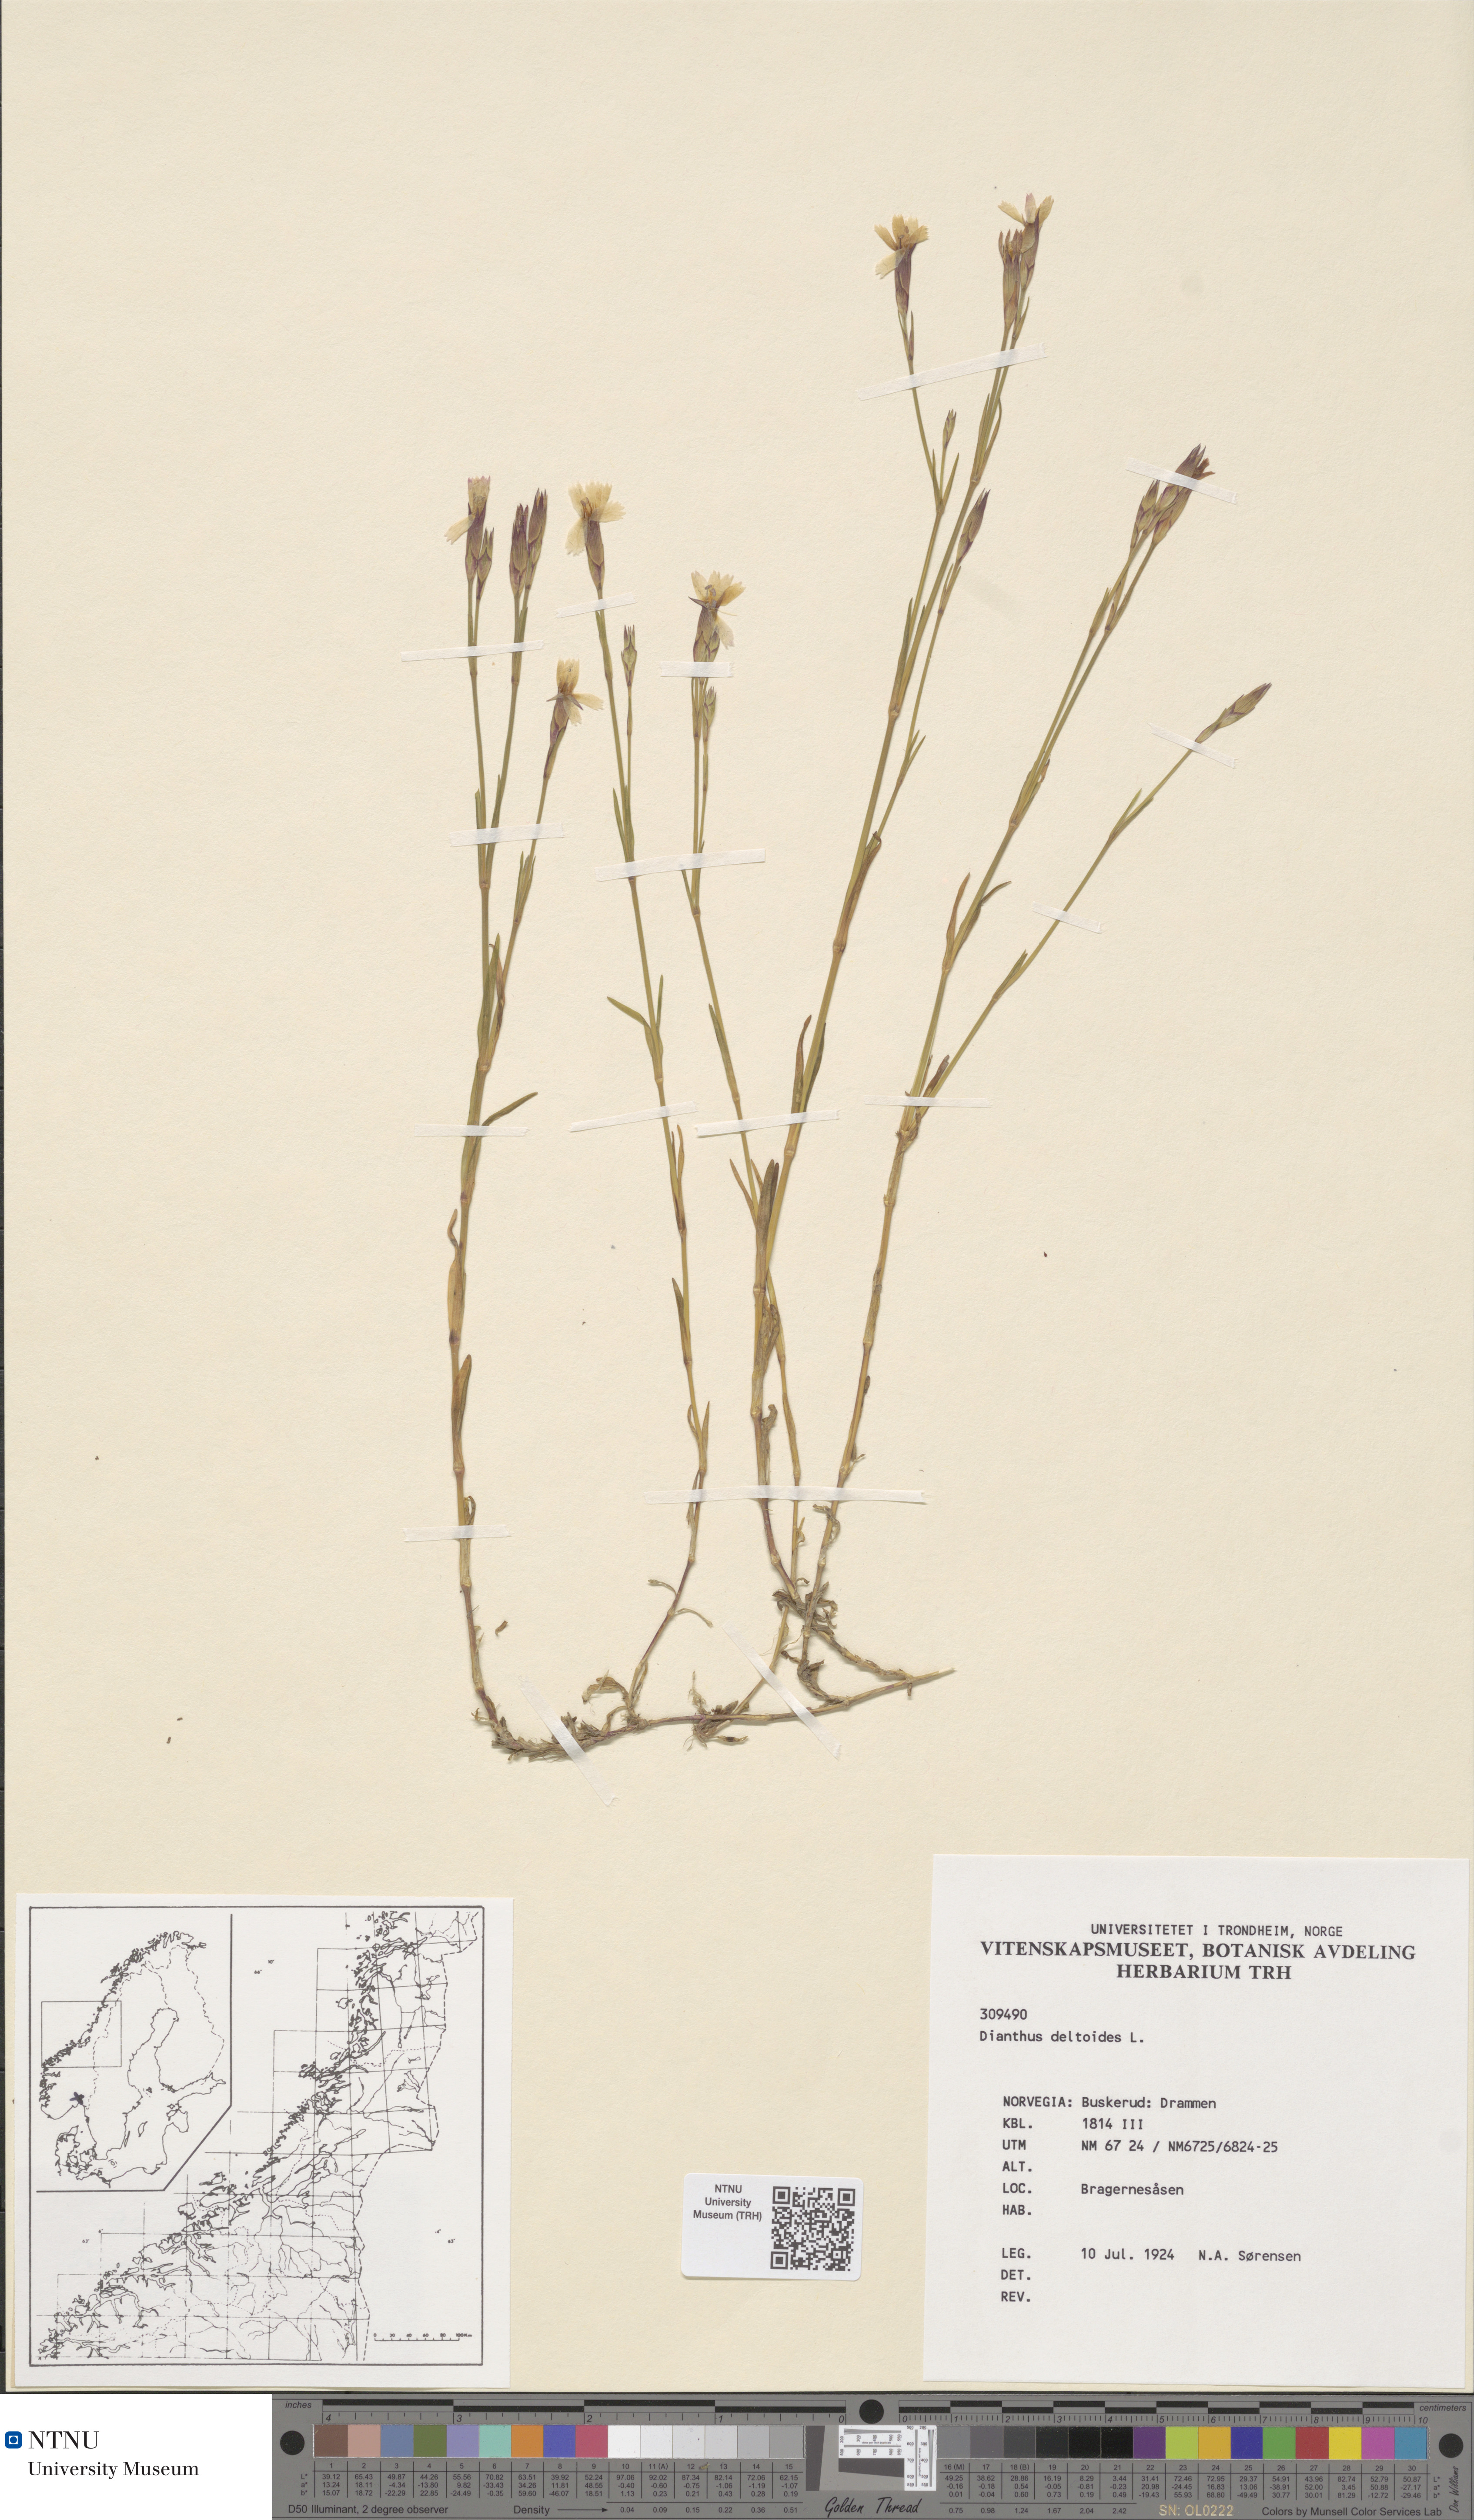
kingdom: Plantae
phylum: Tracheophyta
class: Magnoliopsida
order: Caryophyllales
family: Caryophyllaceae
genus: Dianthus
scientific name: Dianthus deltoides
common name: Maiden pink
